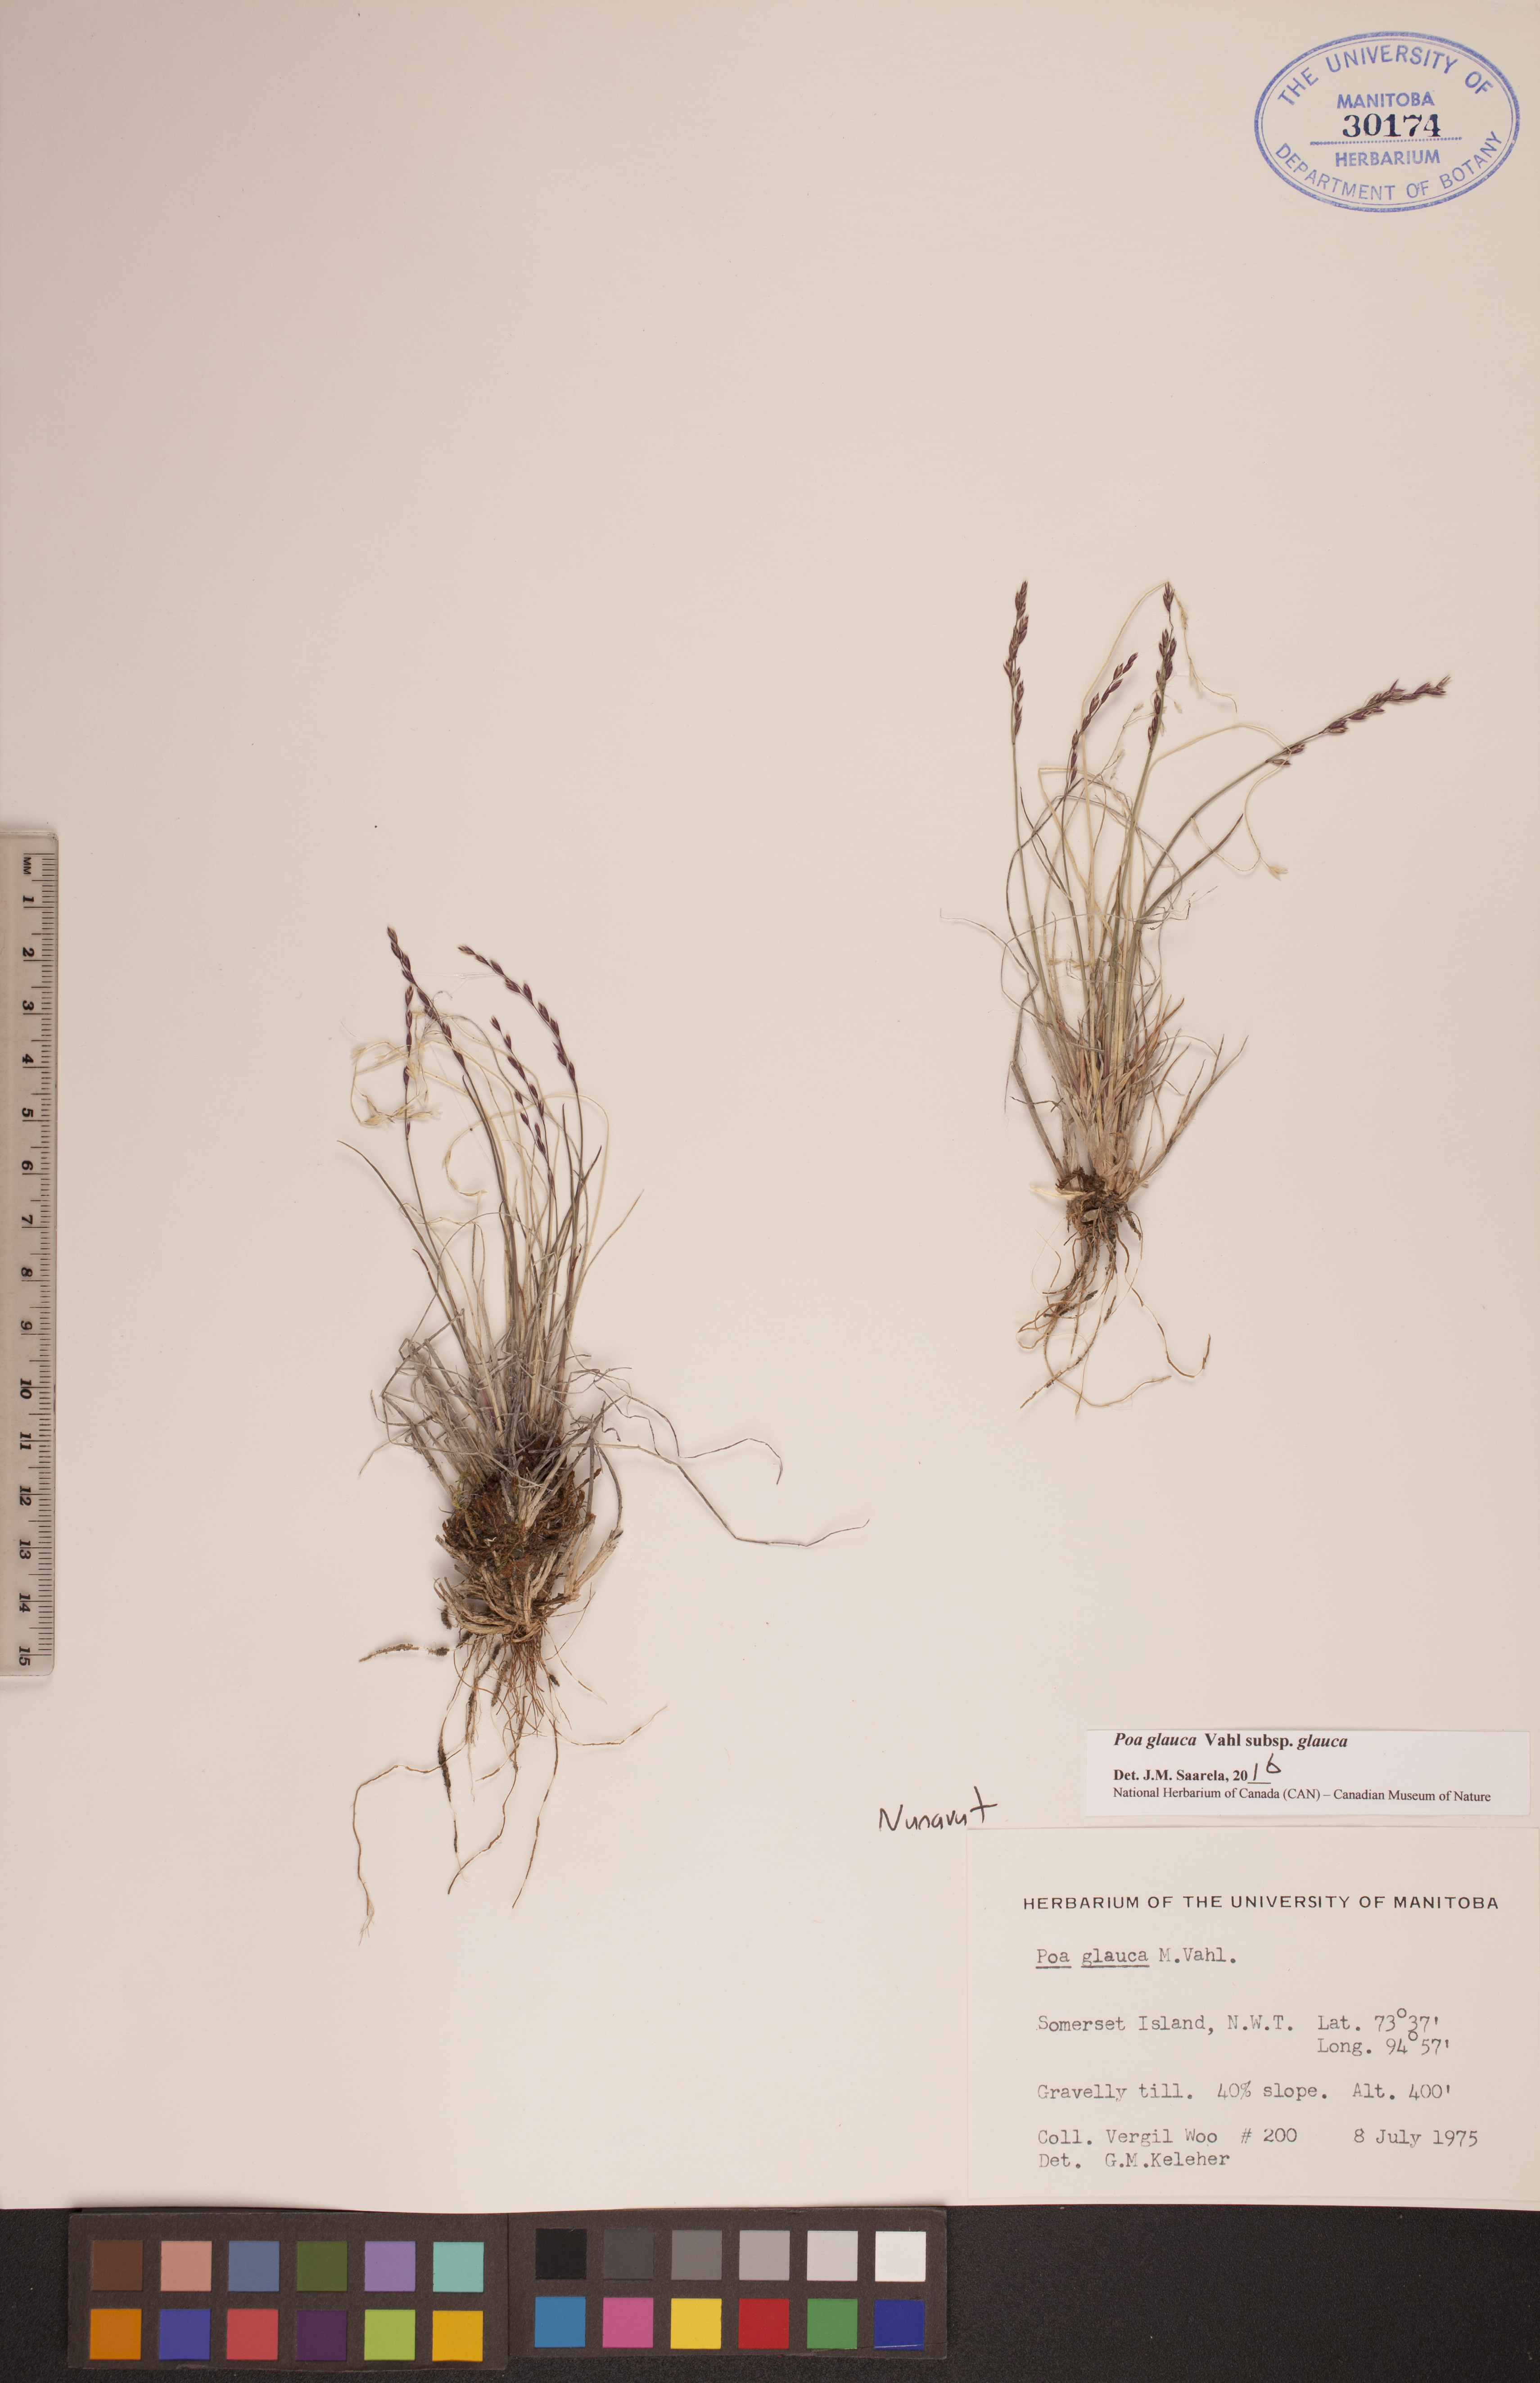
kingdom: Plantae
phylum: Tracheophyta
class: Liliopsida
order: Poales
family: Poaceae
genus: Poa
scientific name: Poa glauca
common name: Glaucous bluegrass
